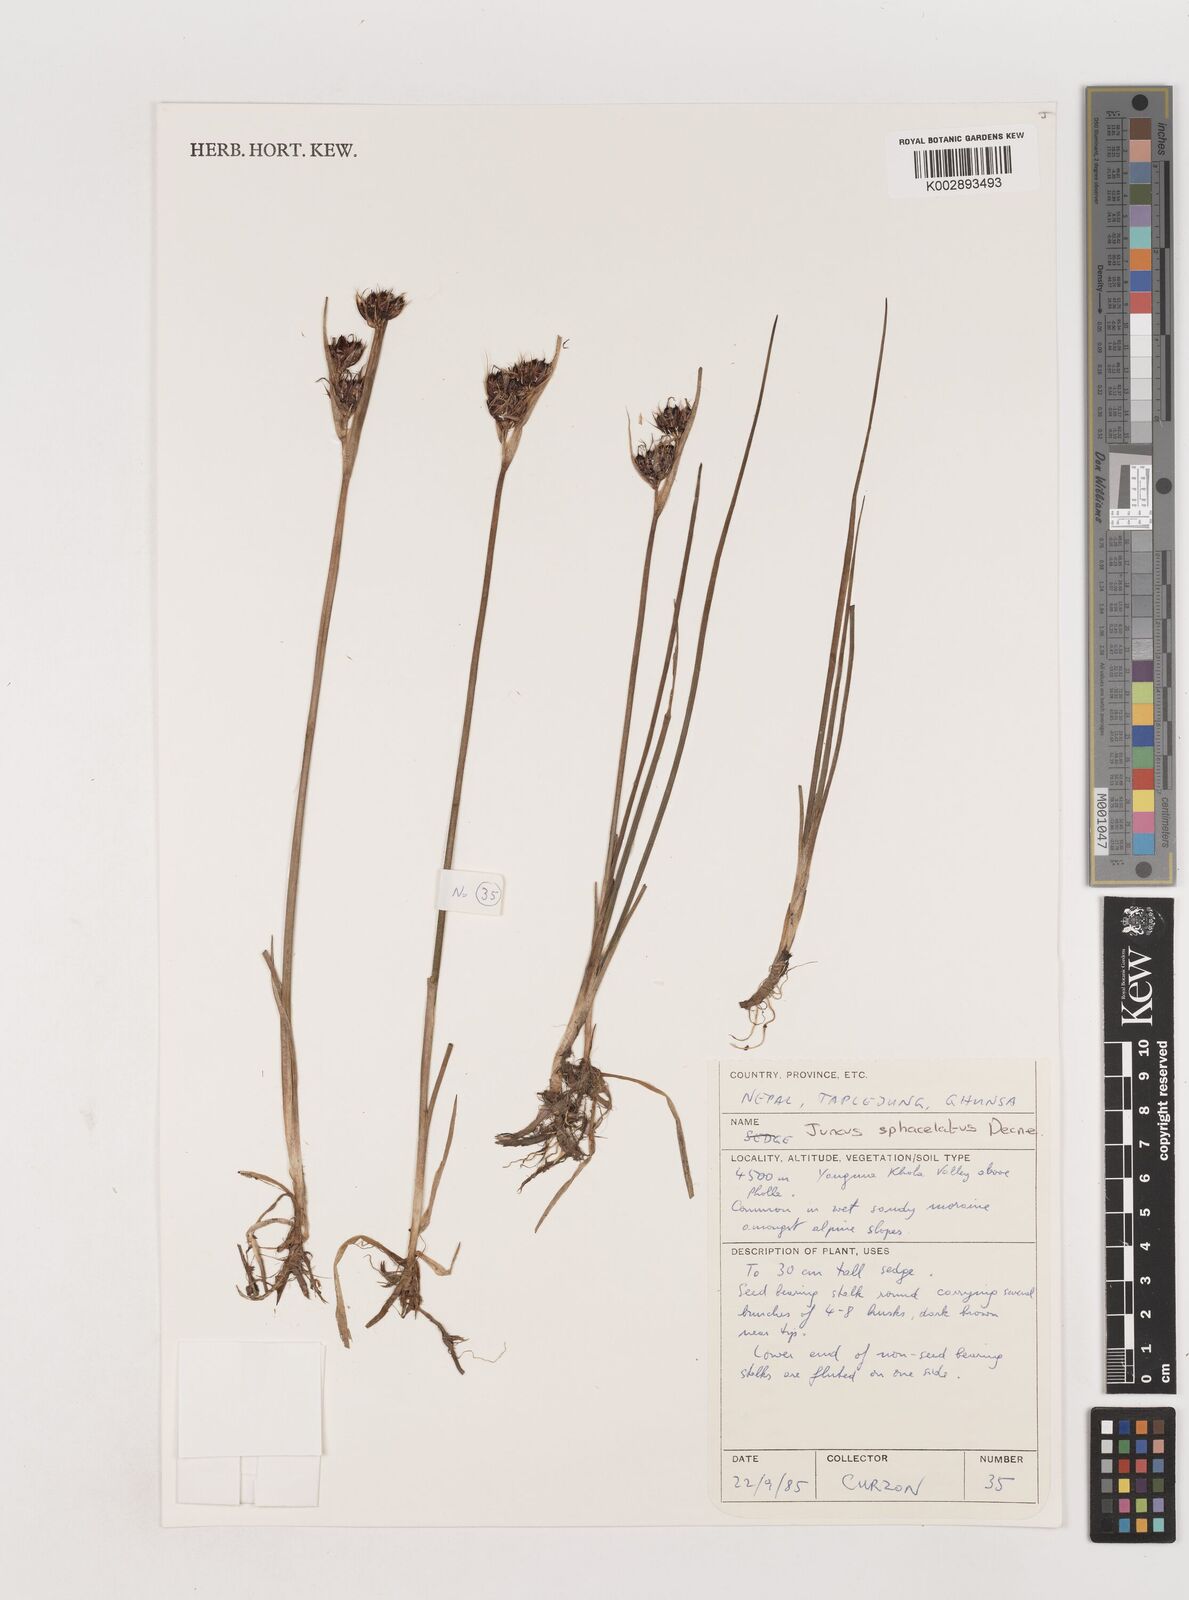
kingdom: Plantae
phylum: Tracheophyta
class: Liliopsida
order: Poales
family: Juncaceae
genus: Juncus
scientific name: Juncus sphacelatus
